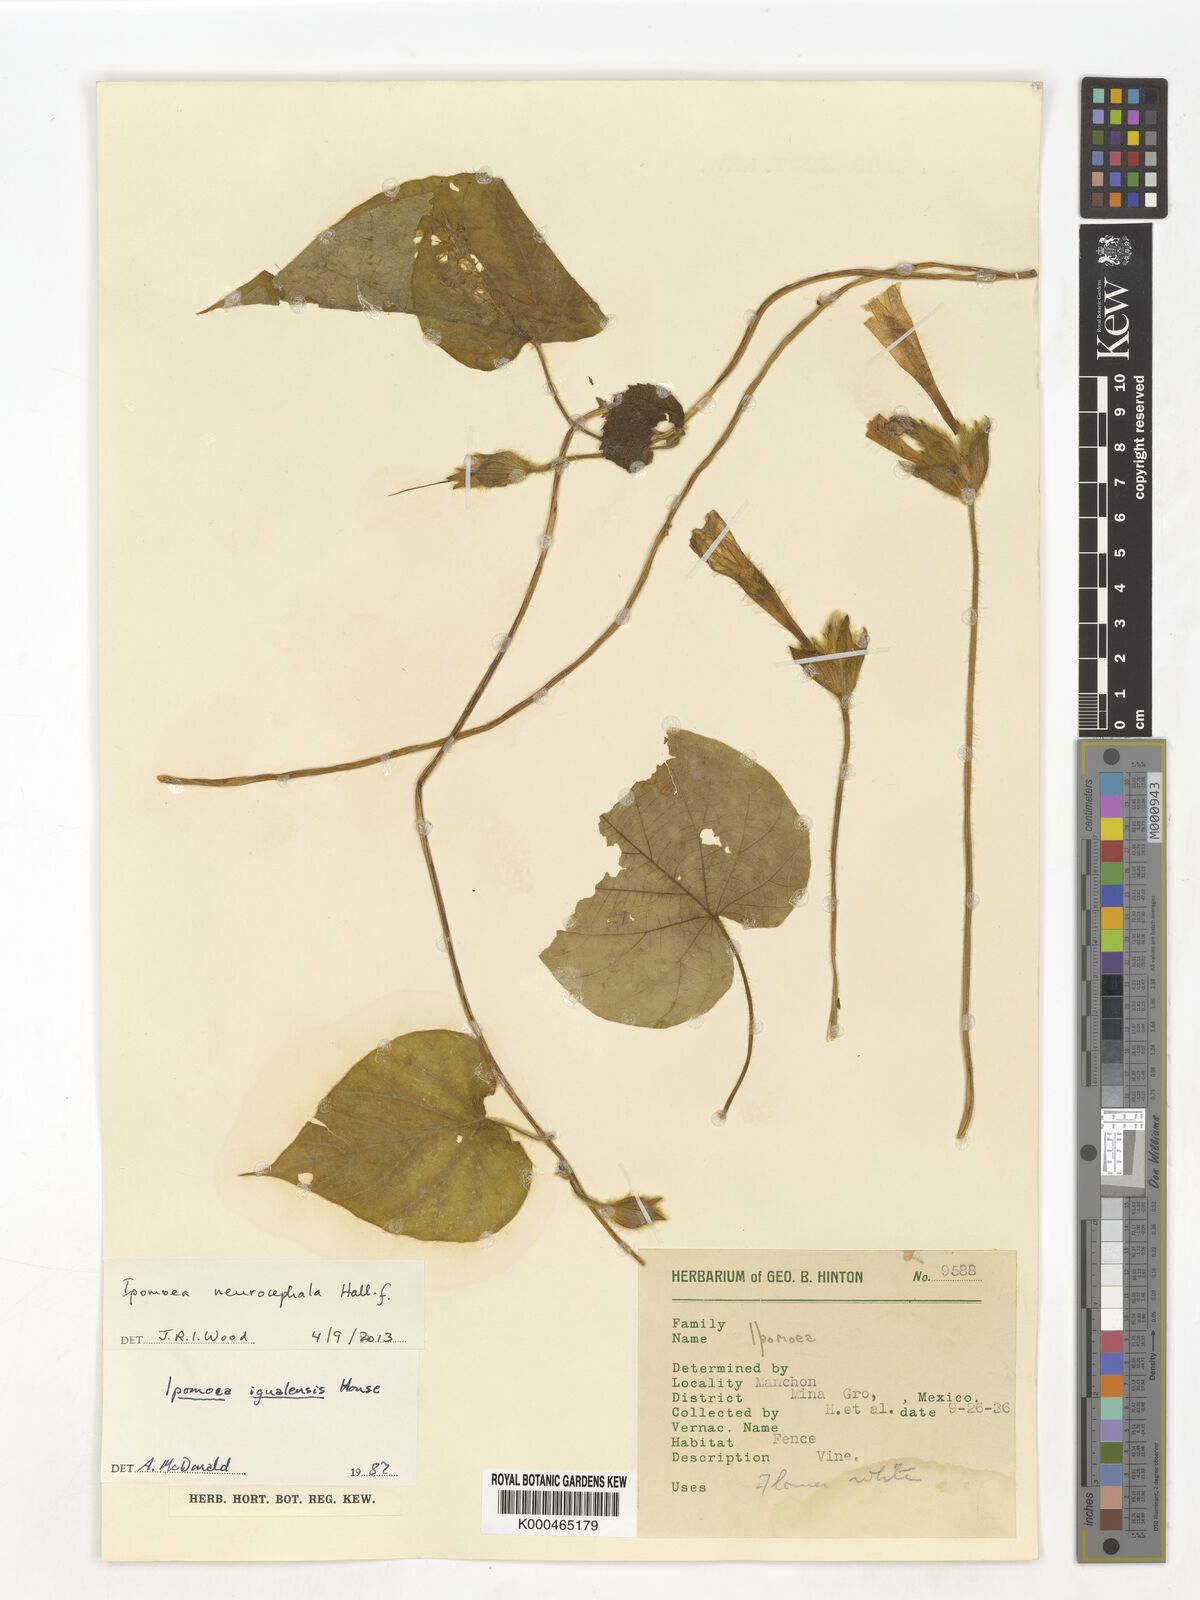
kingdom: Plantae
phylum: Tracheophyta
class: Magnoliopsida
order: Solanales
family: Convolvulaceae
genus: Ipomoea
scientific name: Ipomoea neurocephala
